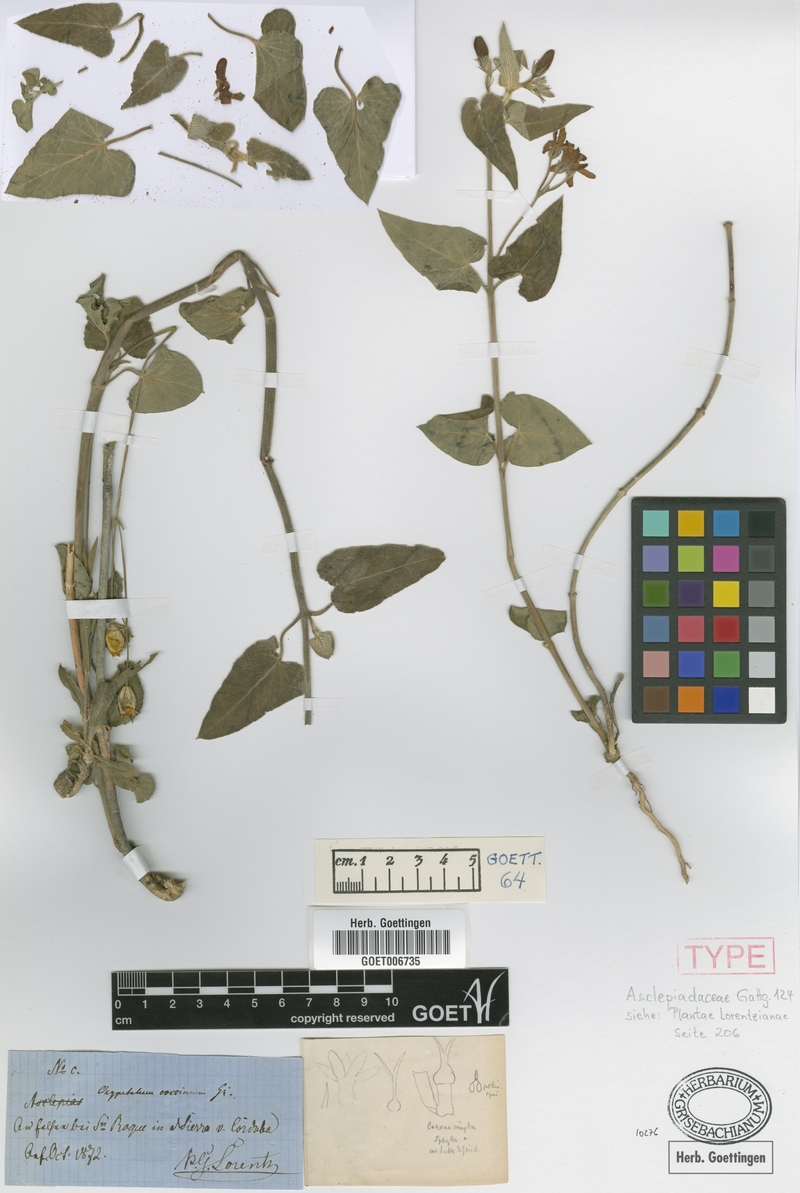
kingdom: Plantae
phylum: Tracheophyta
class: Magnoliopsida
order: Gentianales
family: Apocynaceae
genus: Oxypetalum
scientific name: Oxypetalum coccineum
